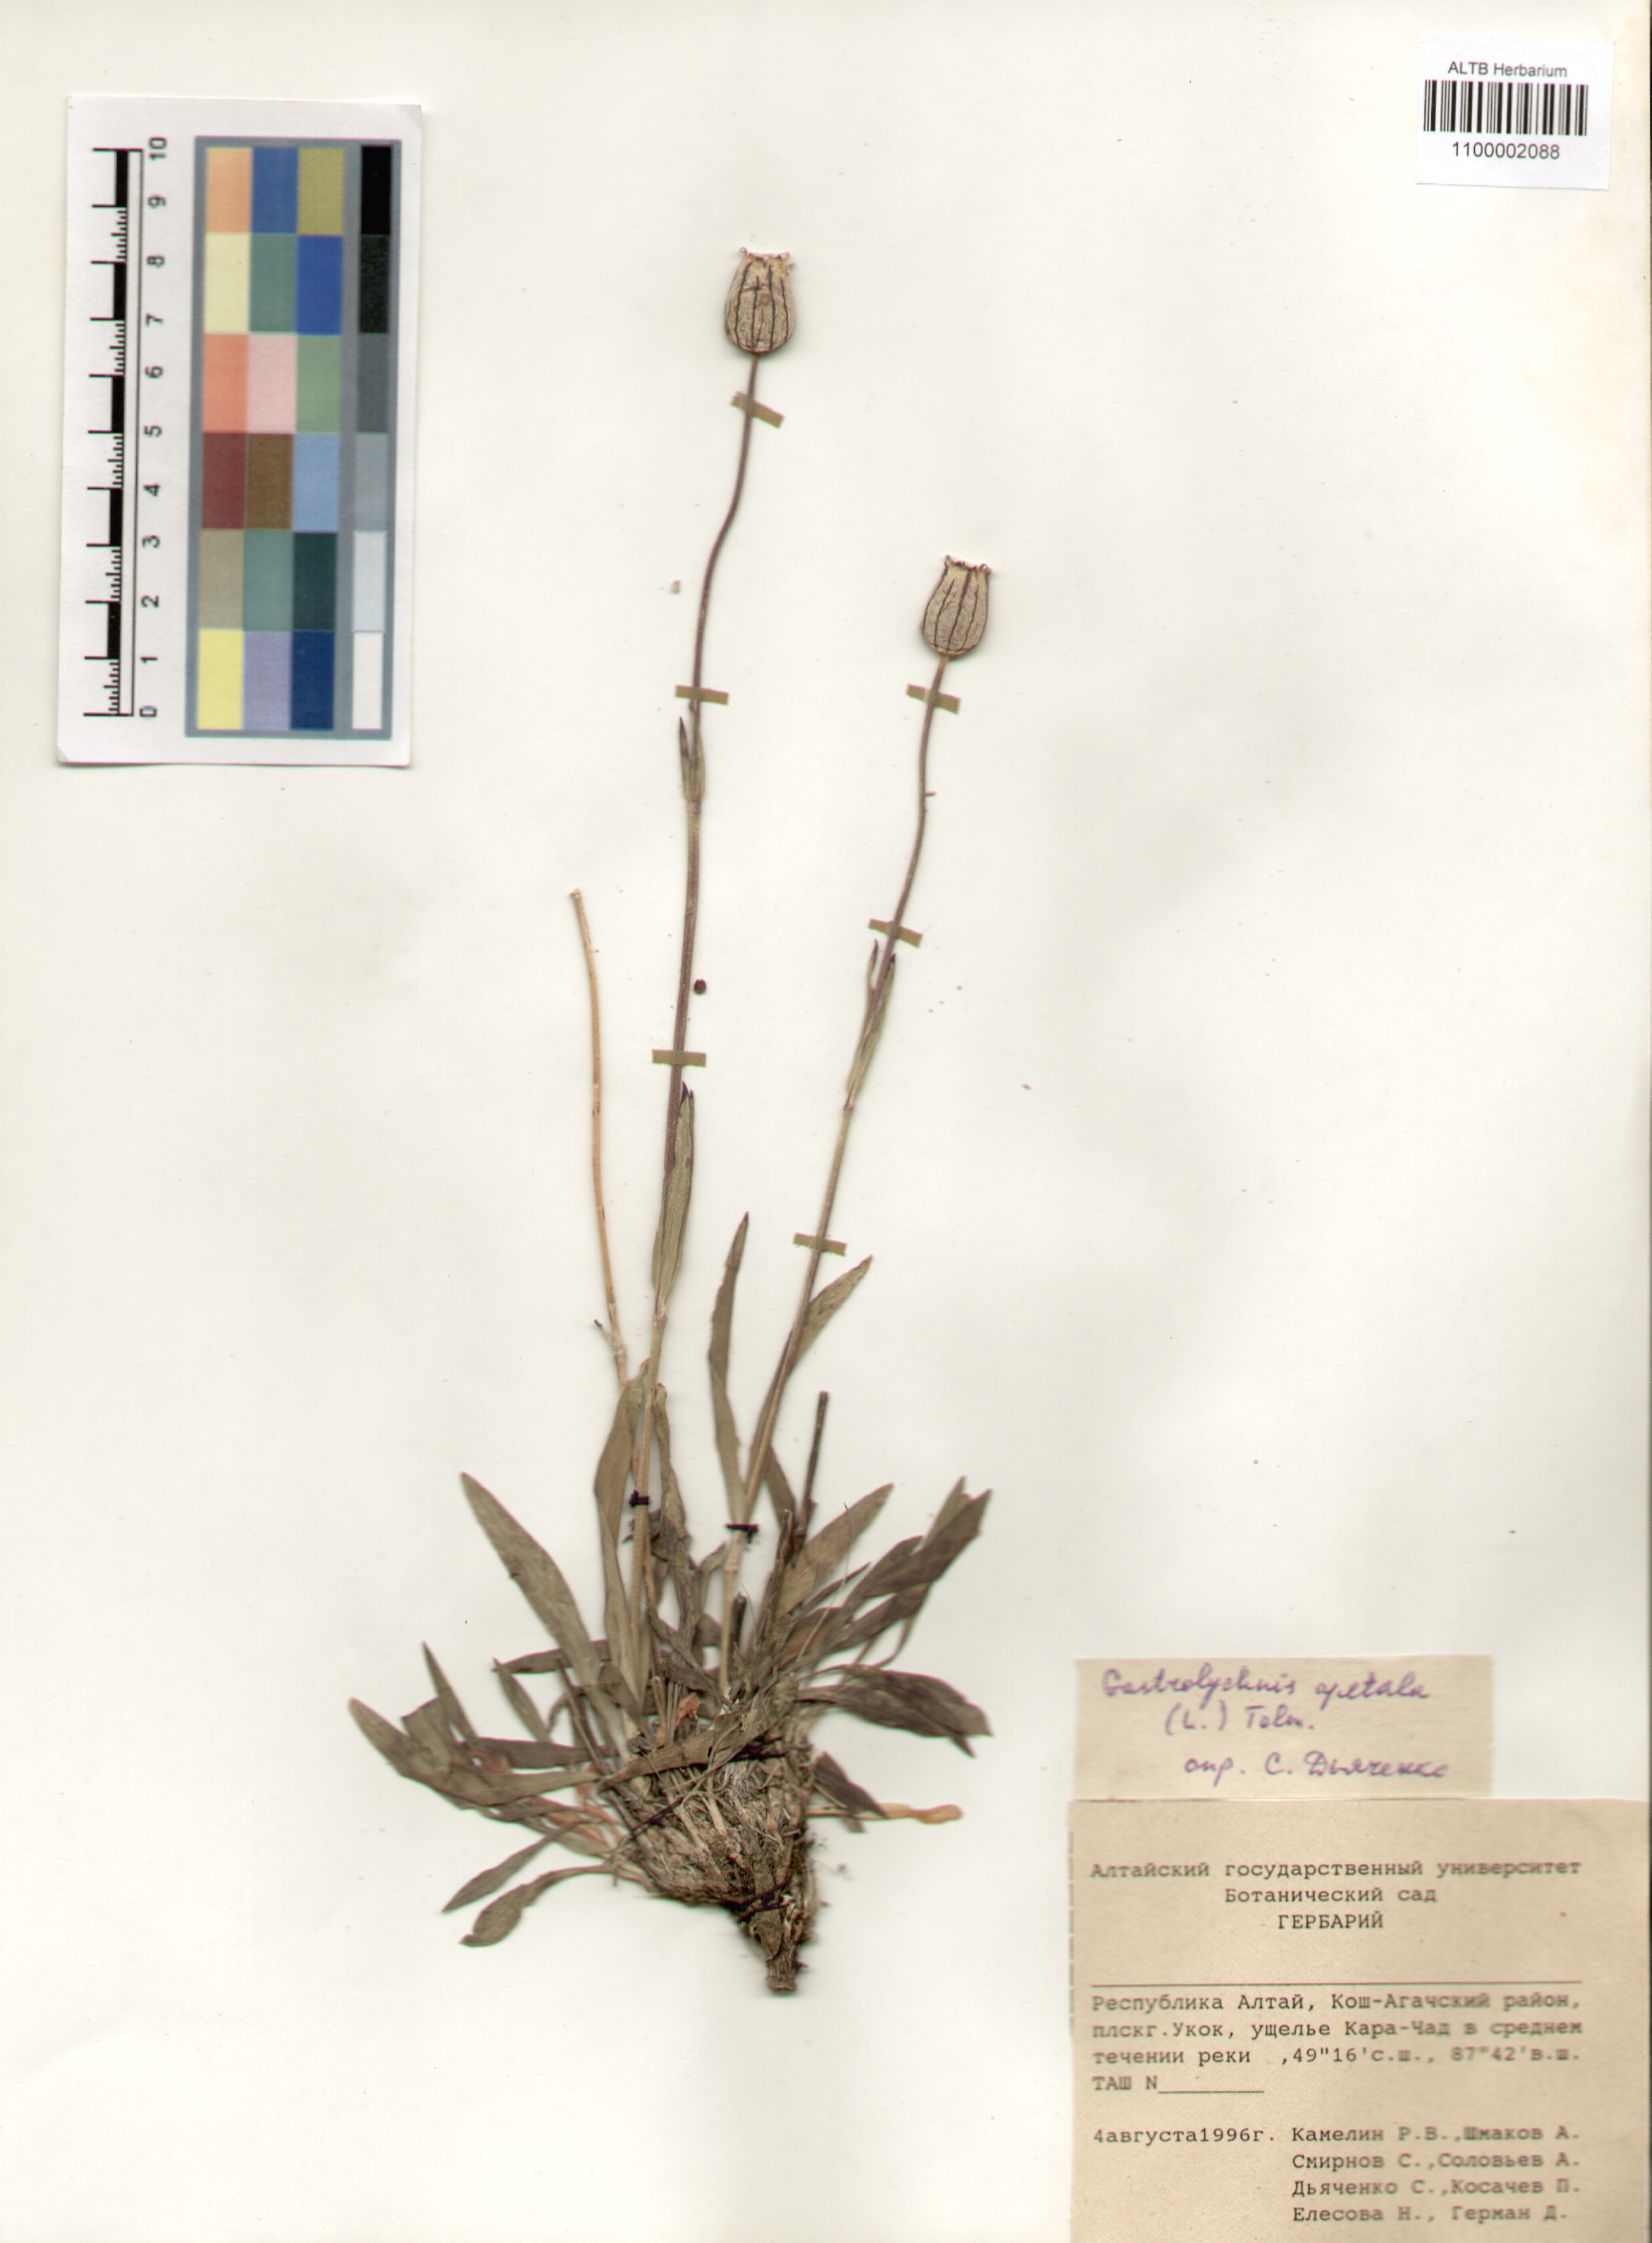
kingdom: Plantae
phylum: Tracheophyta
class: Magnoliopsida
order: Caryophyllales
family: Caryophyllaceae
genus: Silene
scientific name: Silene wahlbergella
